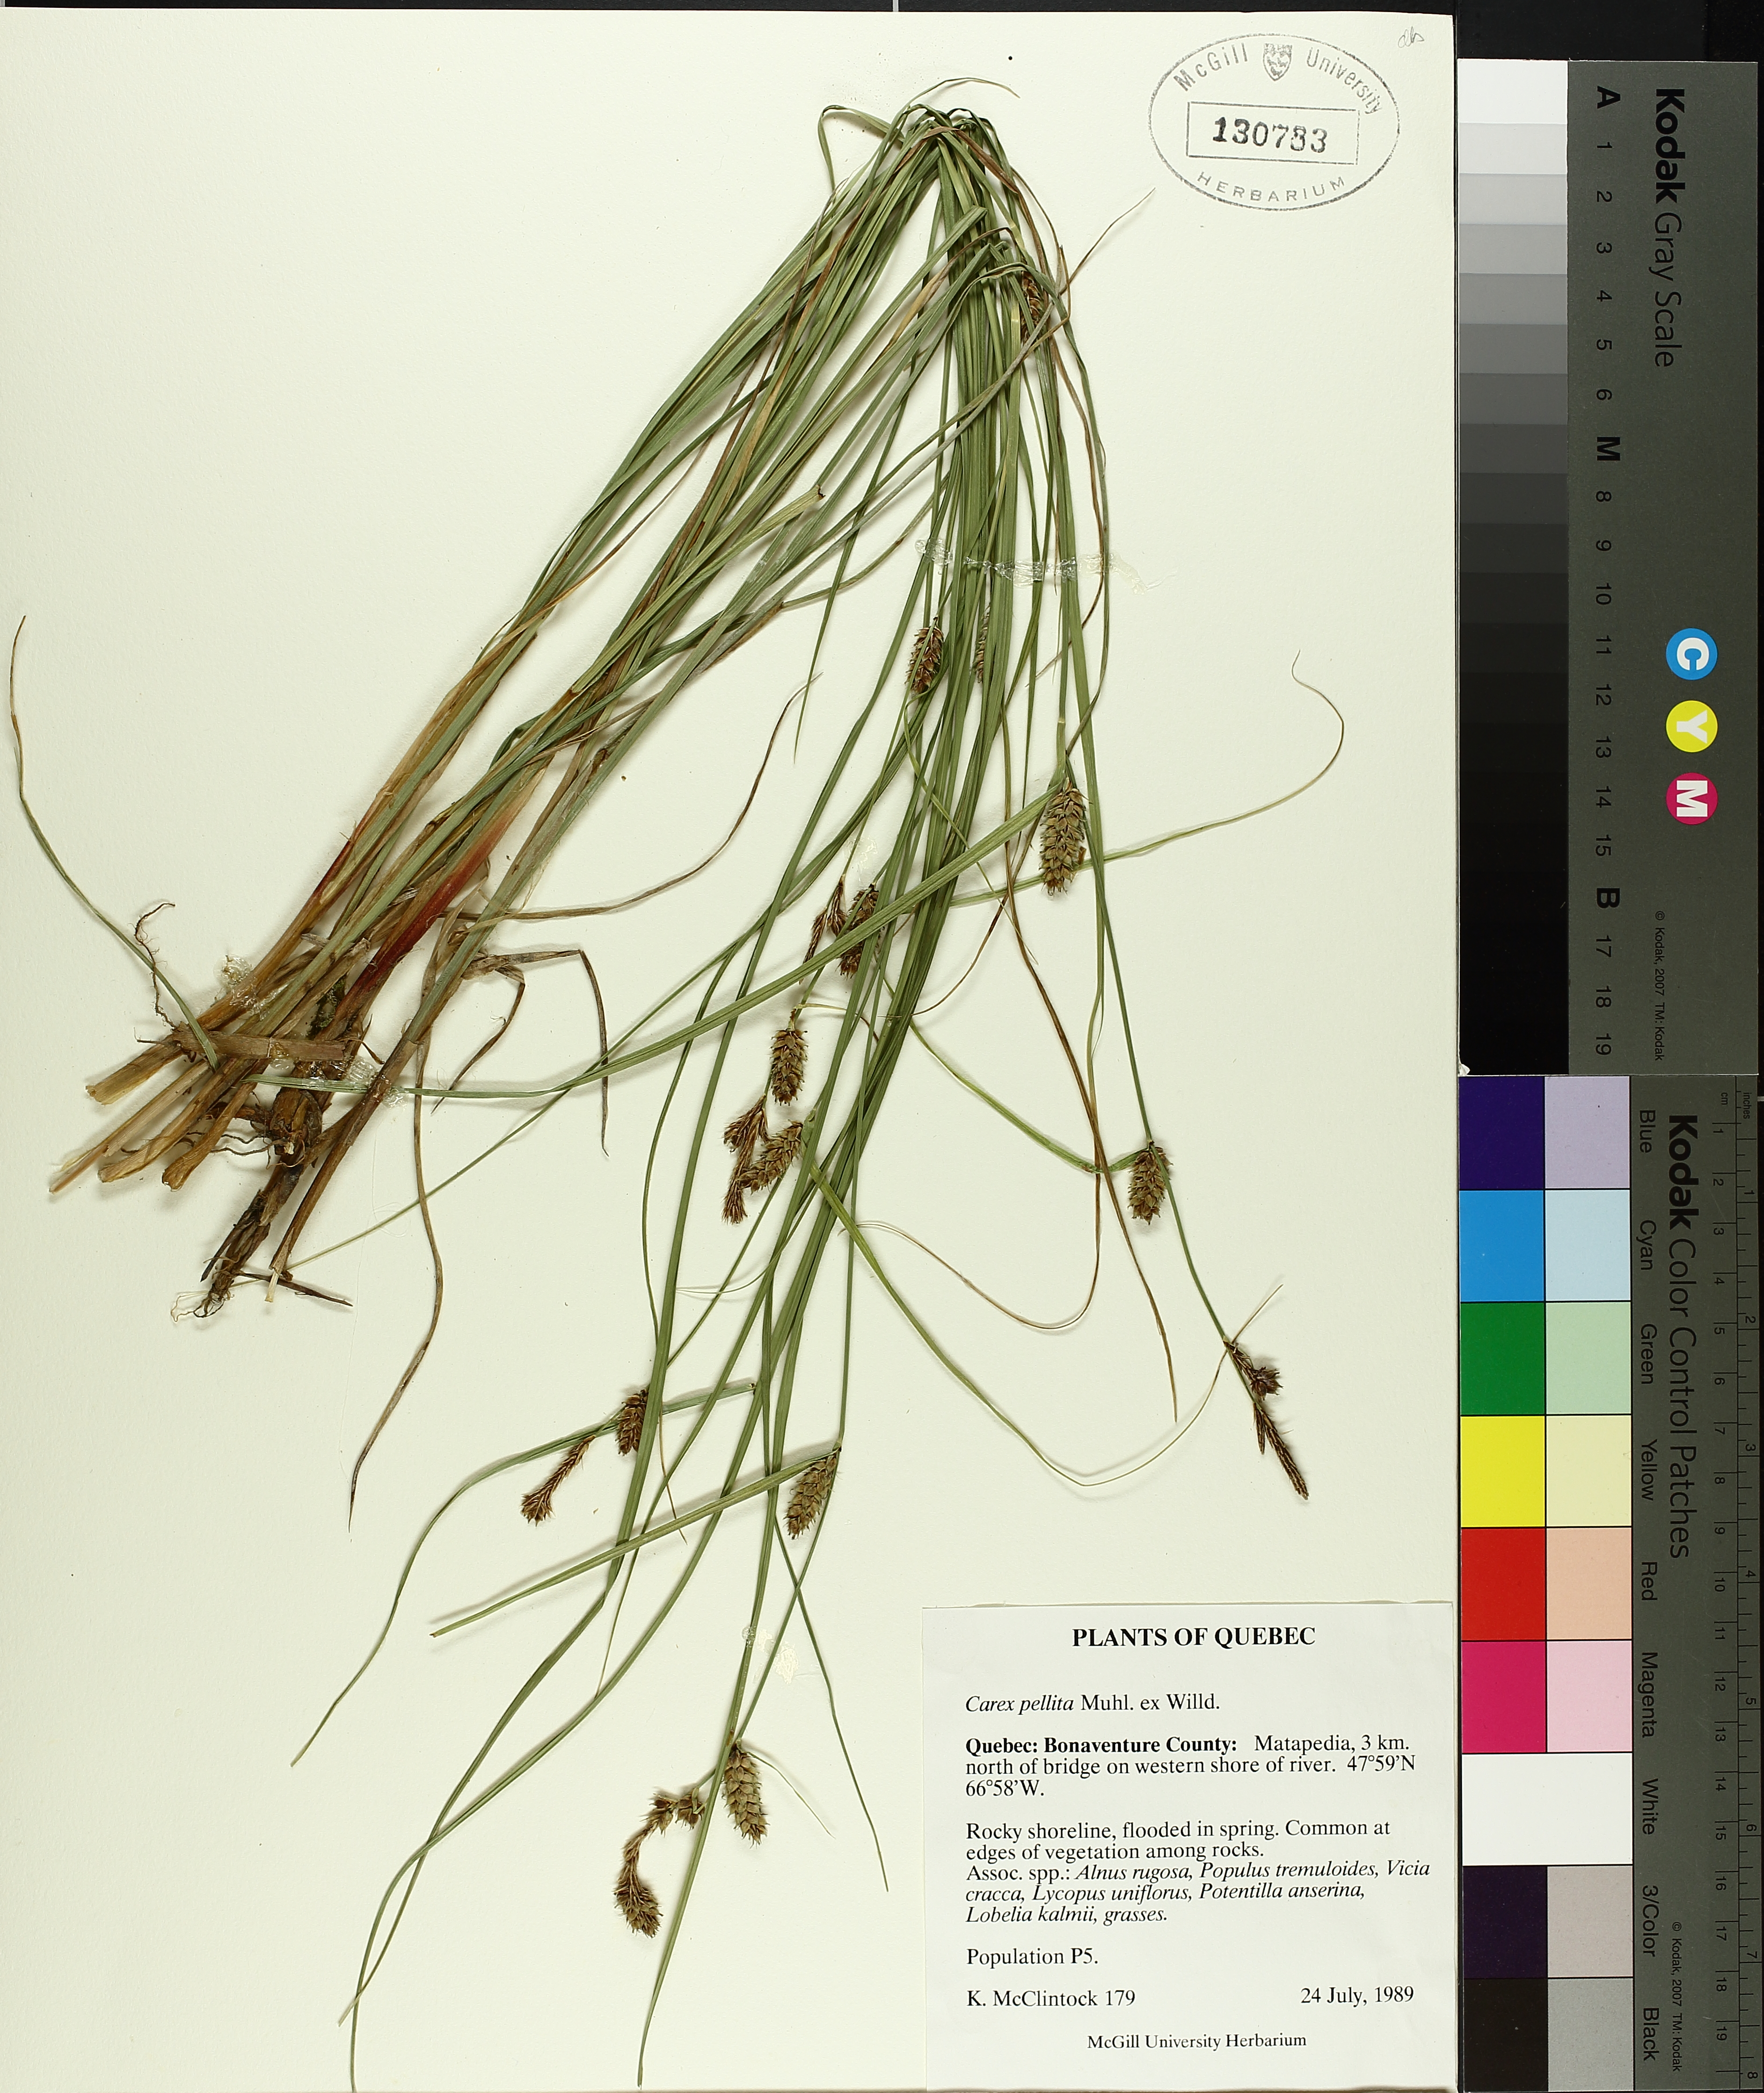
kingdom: Plantae
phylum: Tracheophyta
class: Liliopsida
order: Poales
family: Cyperaceae
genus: Carex
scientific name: Carex pellita
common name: Woolly sedge
